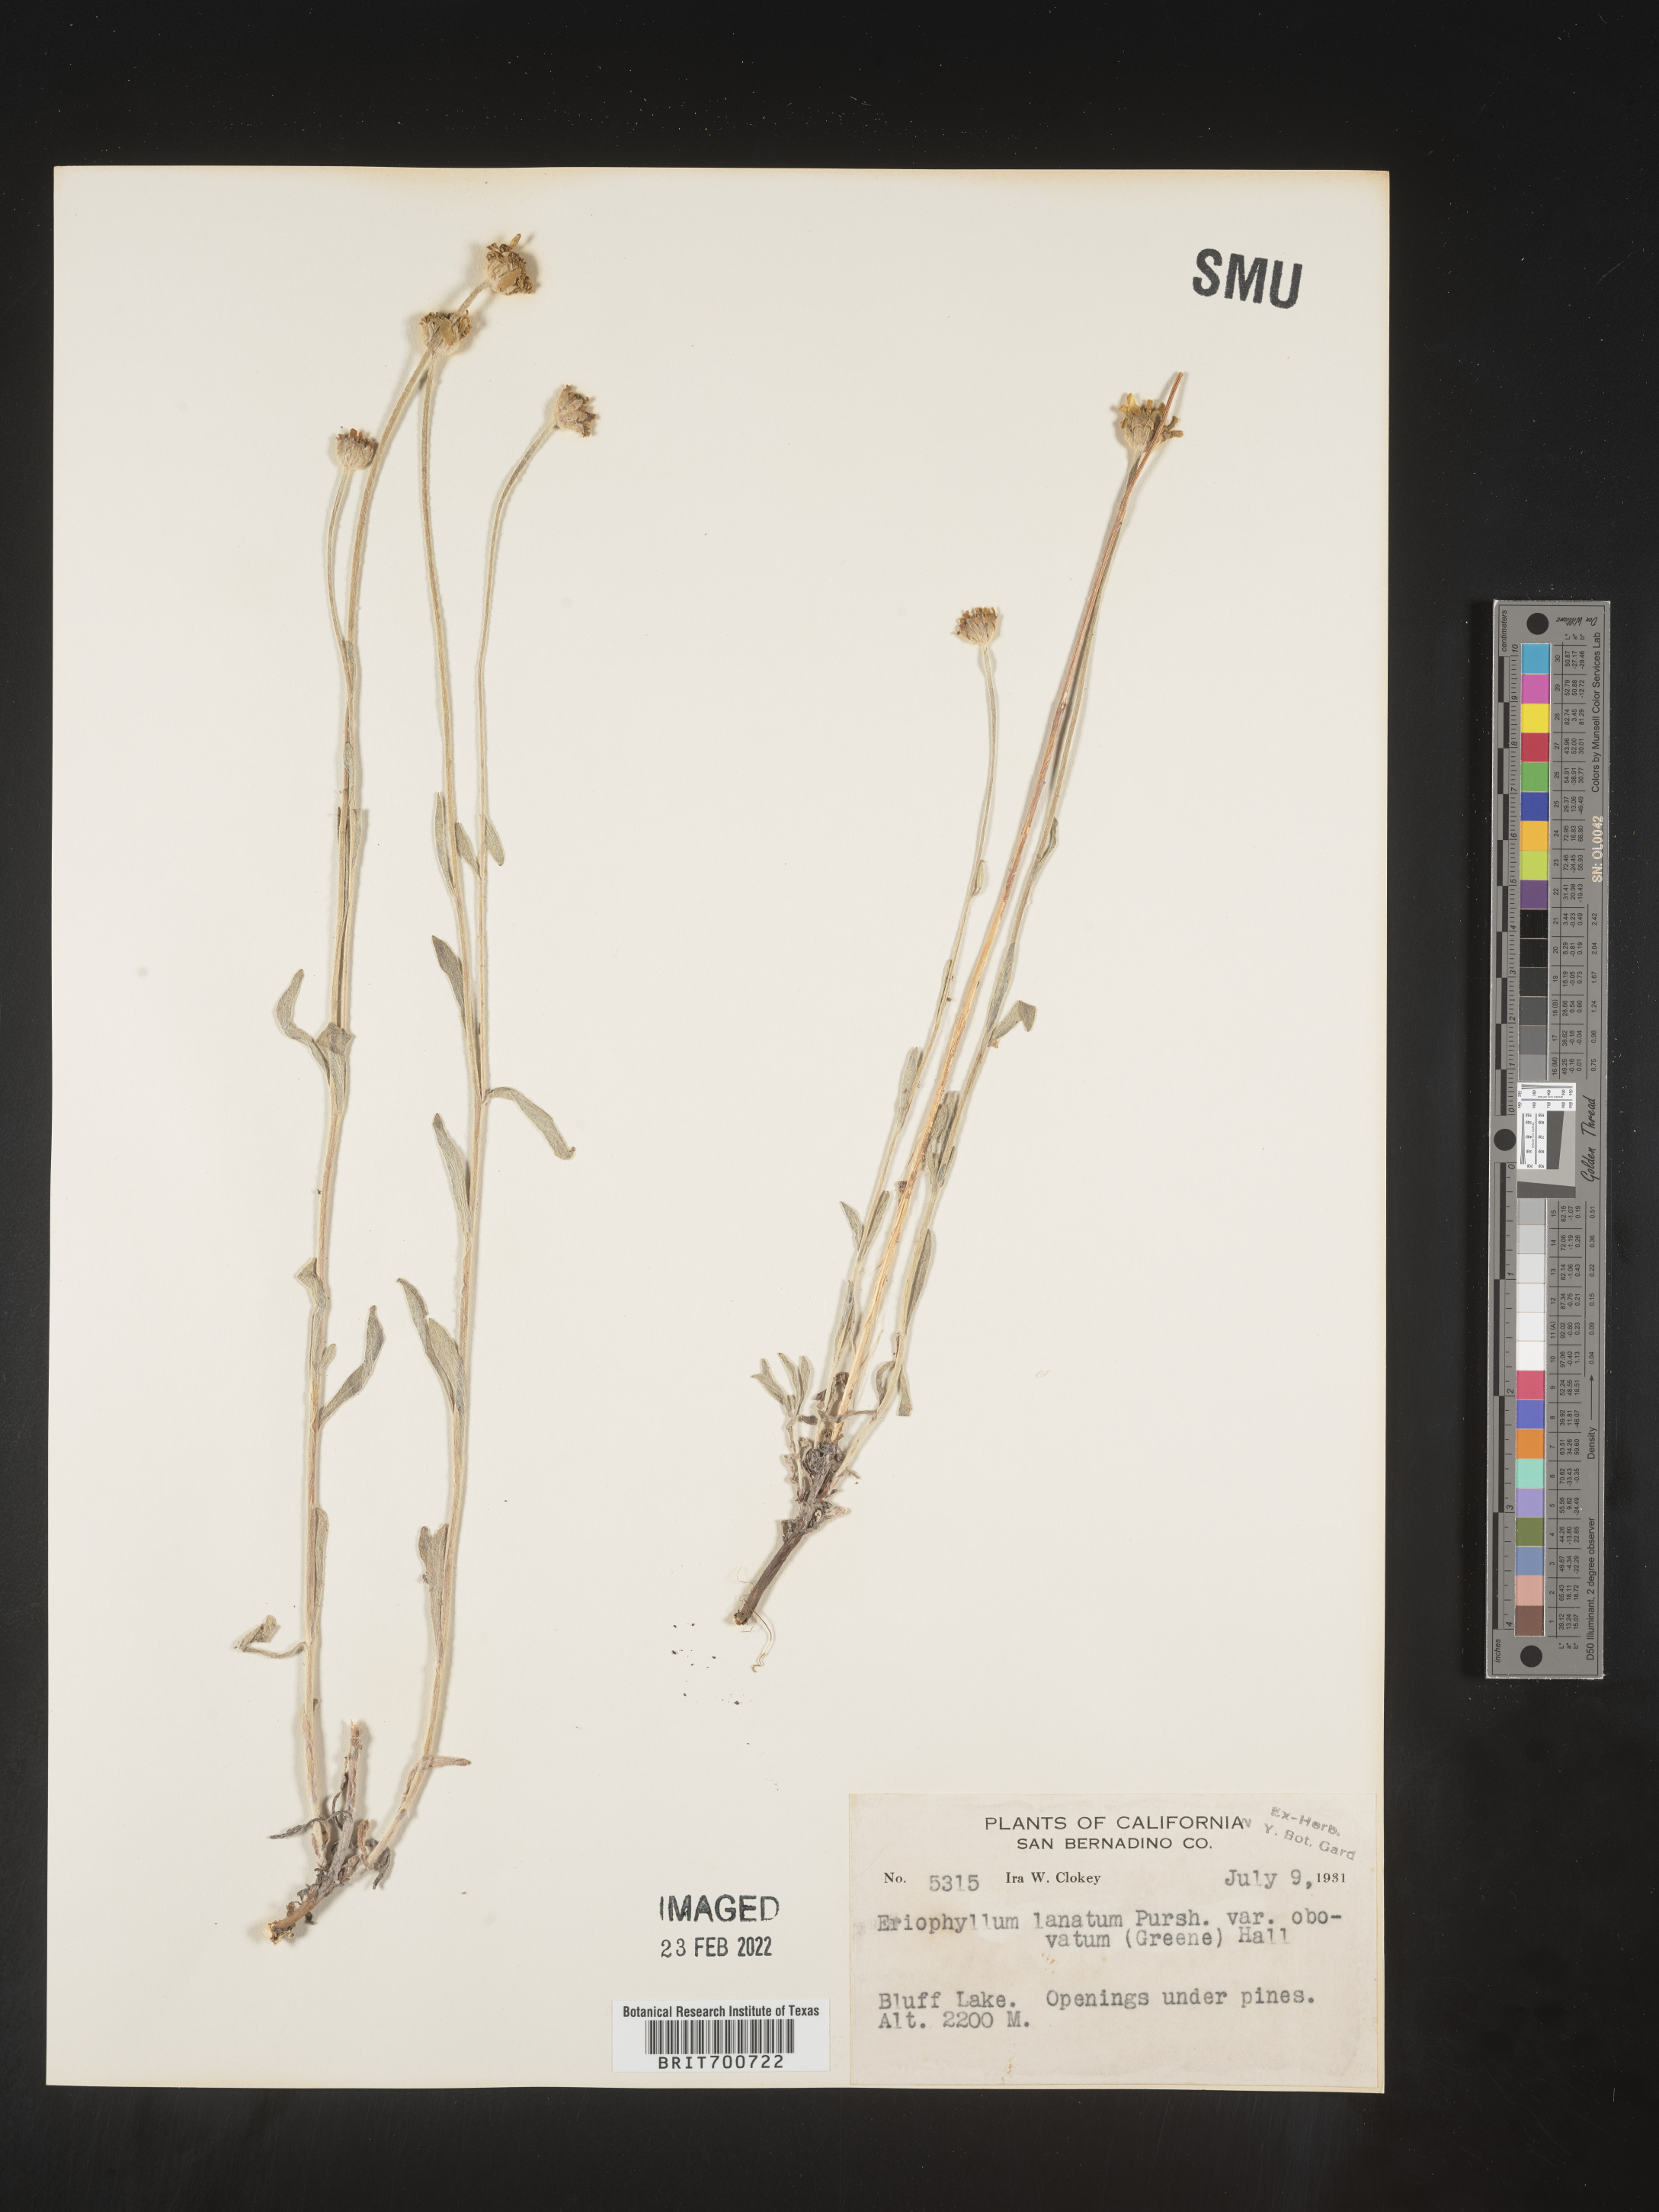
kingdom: Plantae
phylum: Tracheophyta
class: Magnoliopsida
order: Asterales
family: Asteraceae
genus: Eriophyllum
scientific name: Eriophyllum lanatum
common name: Common woolly-sunflower
